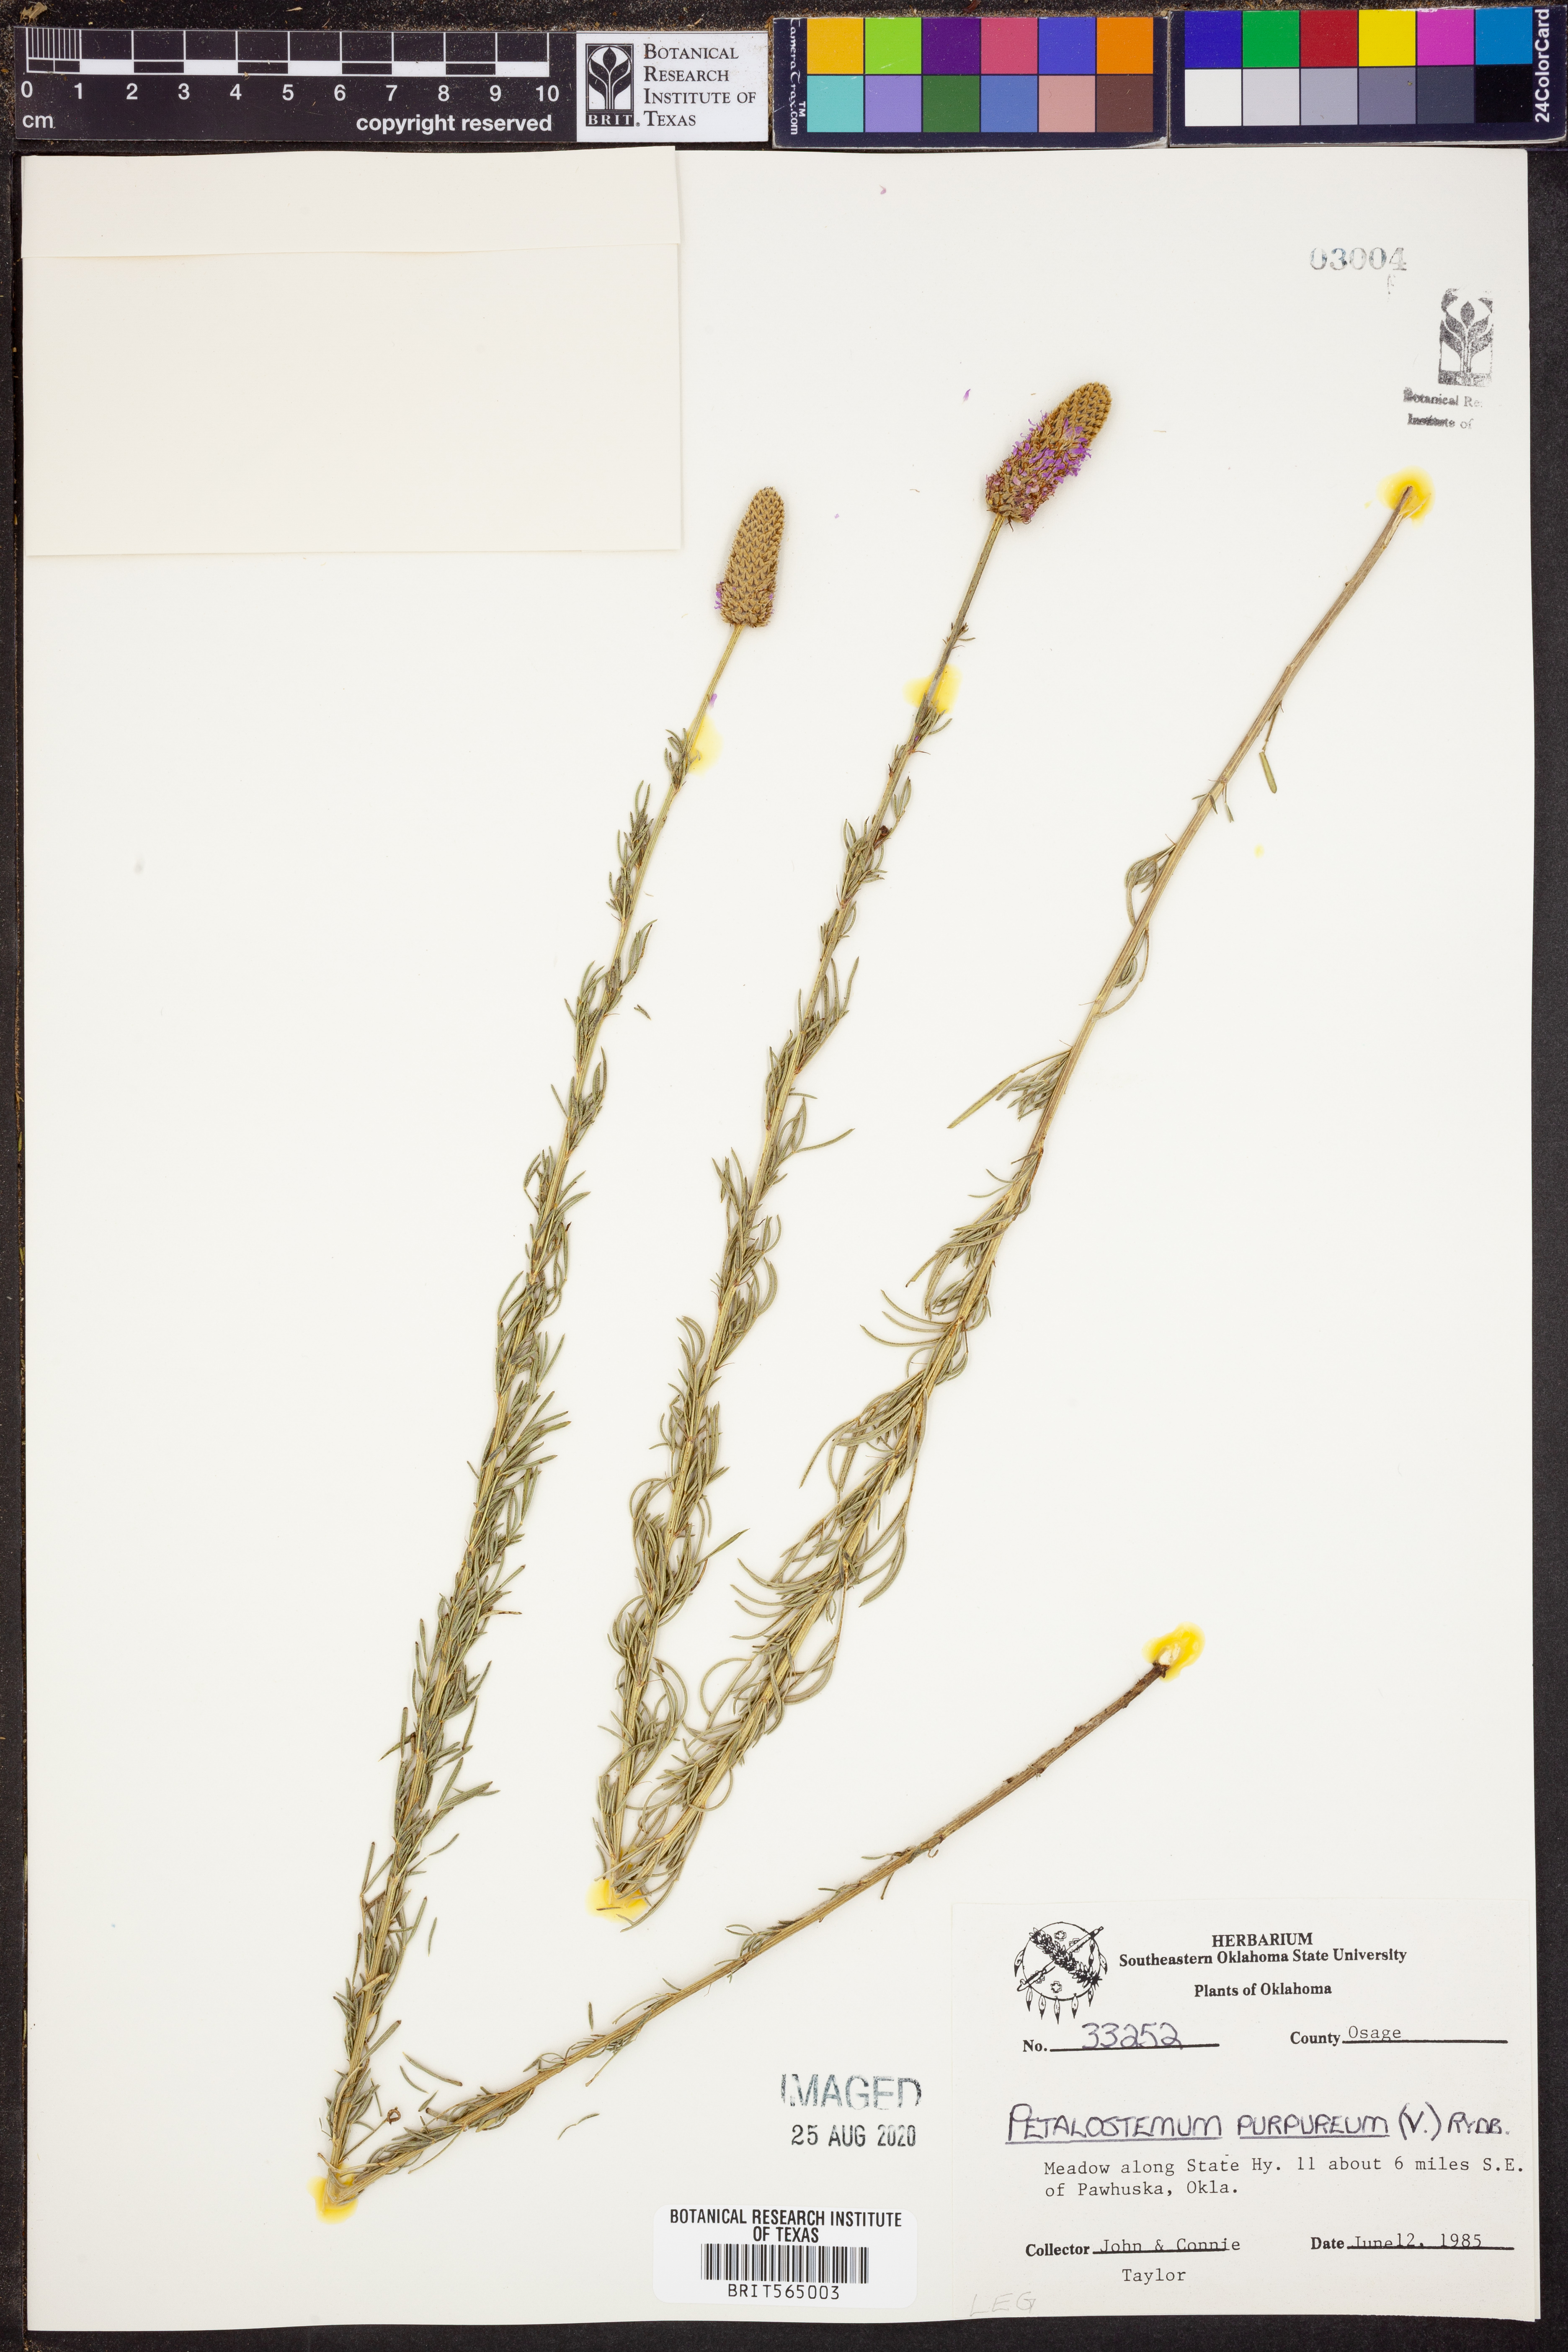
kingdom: Plantae
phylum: Tracheophyta
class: Magnoliopsida
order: Fabales
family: Fabaceae
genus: Dalea
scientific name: Dalea purpurea
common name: Purple prairie-clover
